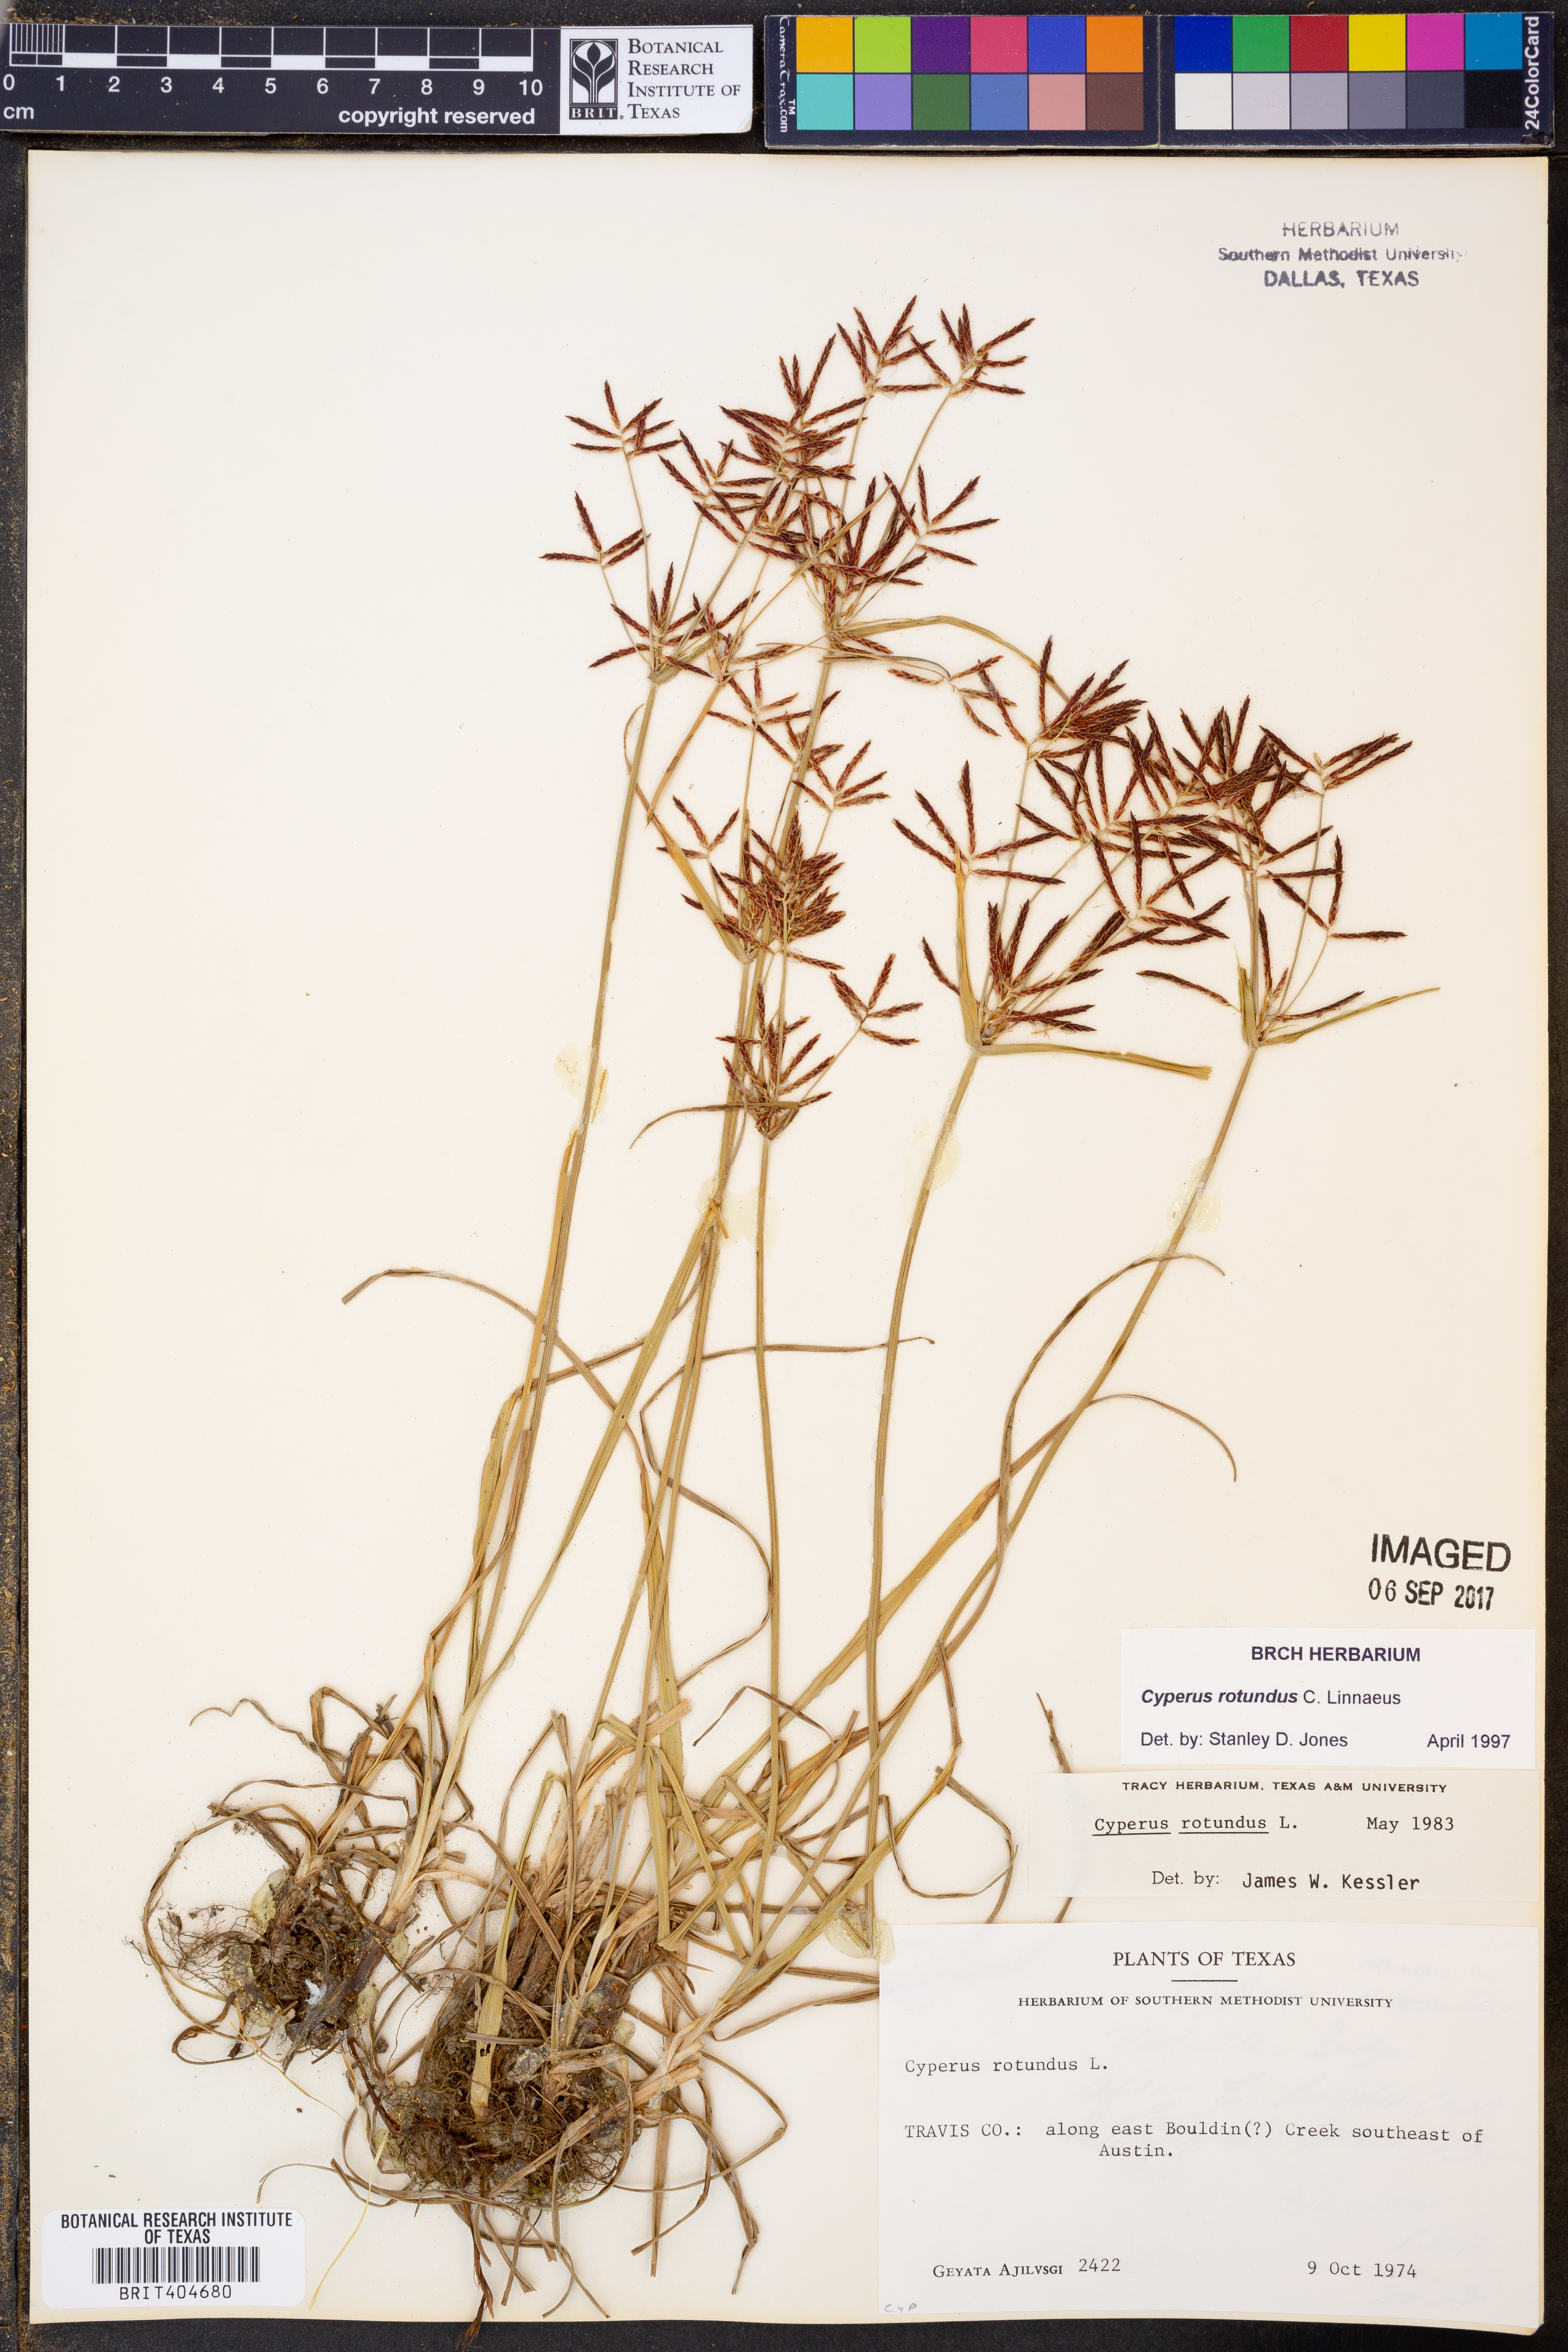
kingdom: Plantae
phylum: Tracheophyta
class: Liliopsida
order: Poales
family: Cyperaceae
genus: Cyperus
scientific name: Cyperus rotundus
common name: Nutgrass
